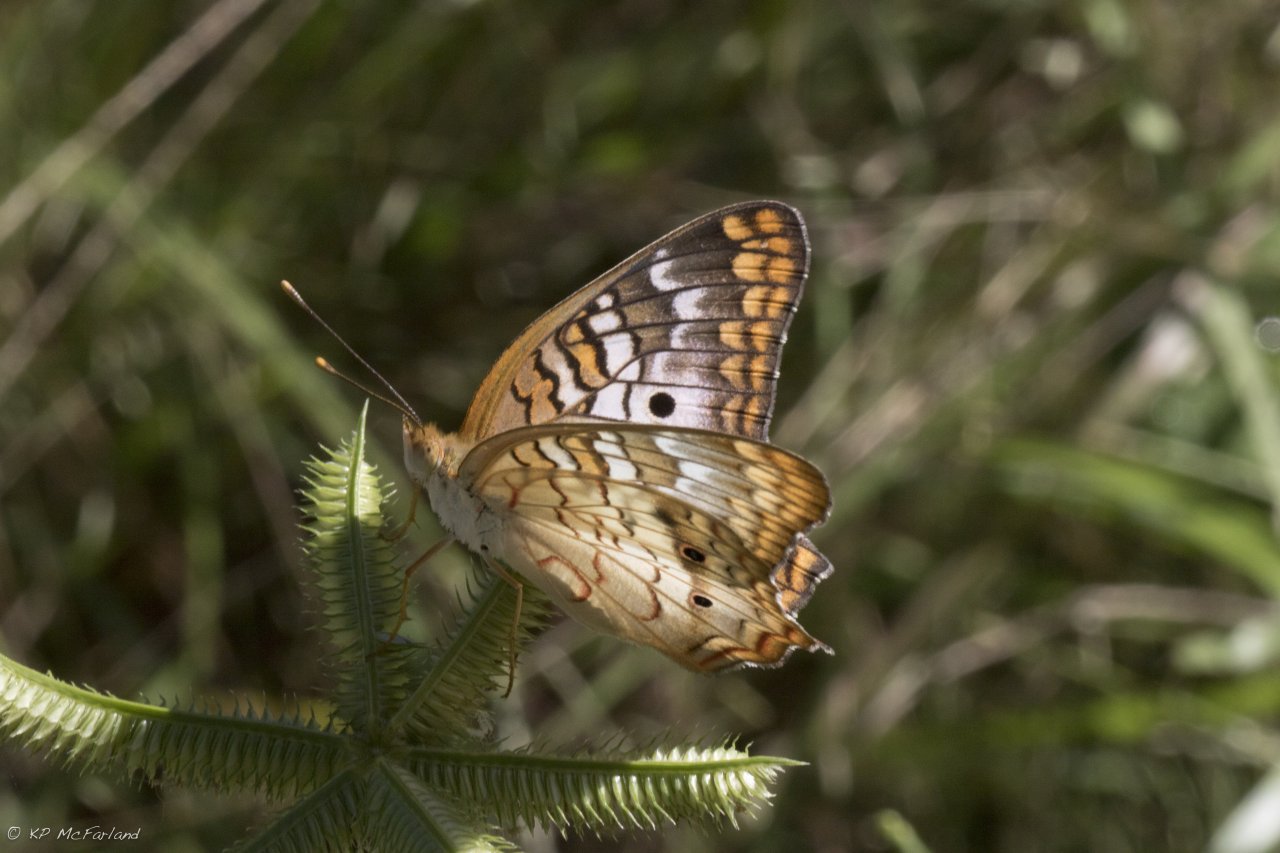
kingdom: Animalia
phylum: Arthropoda
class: Insecta
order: Lepidoptera
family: Nymphalidae
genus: Anartia
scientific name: Anartia jatrophae
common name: White Peacock
